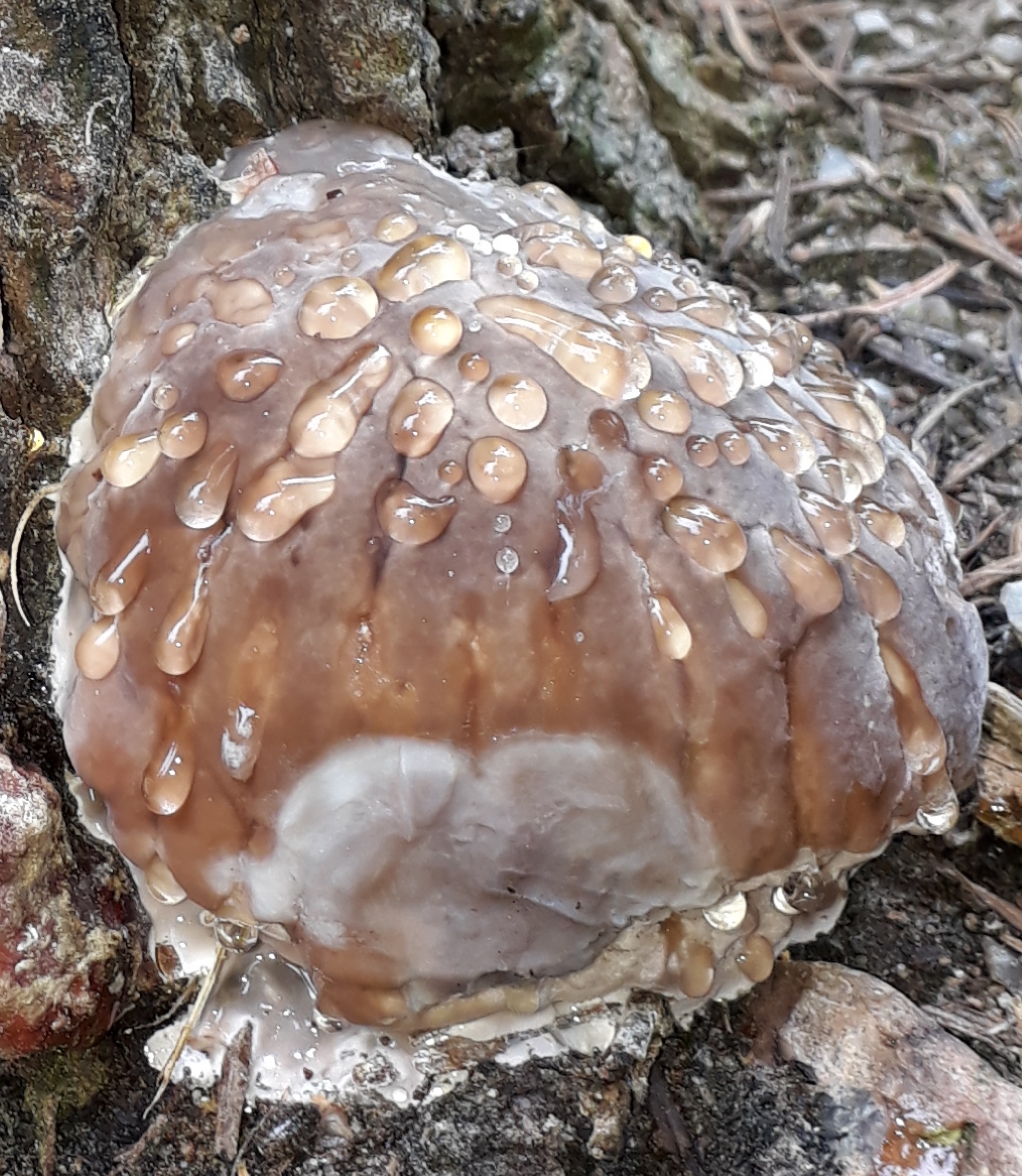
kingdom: Fungi
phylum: Basidiomycota
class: Agaricomycetes
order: Polyporales
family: Fomitopsidaceae
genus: Fomitopsis
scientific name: Fomitopsis pinicola
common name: randbæltet hovporesvamp
